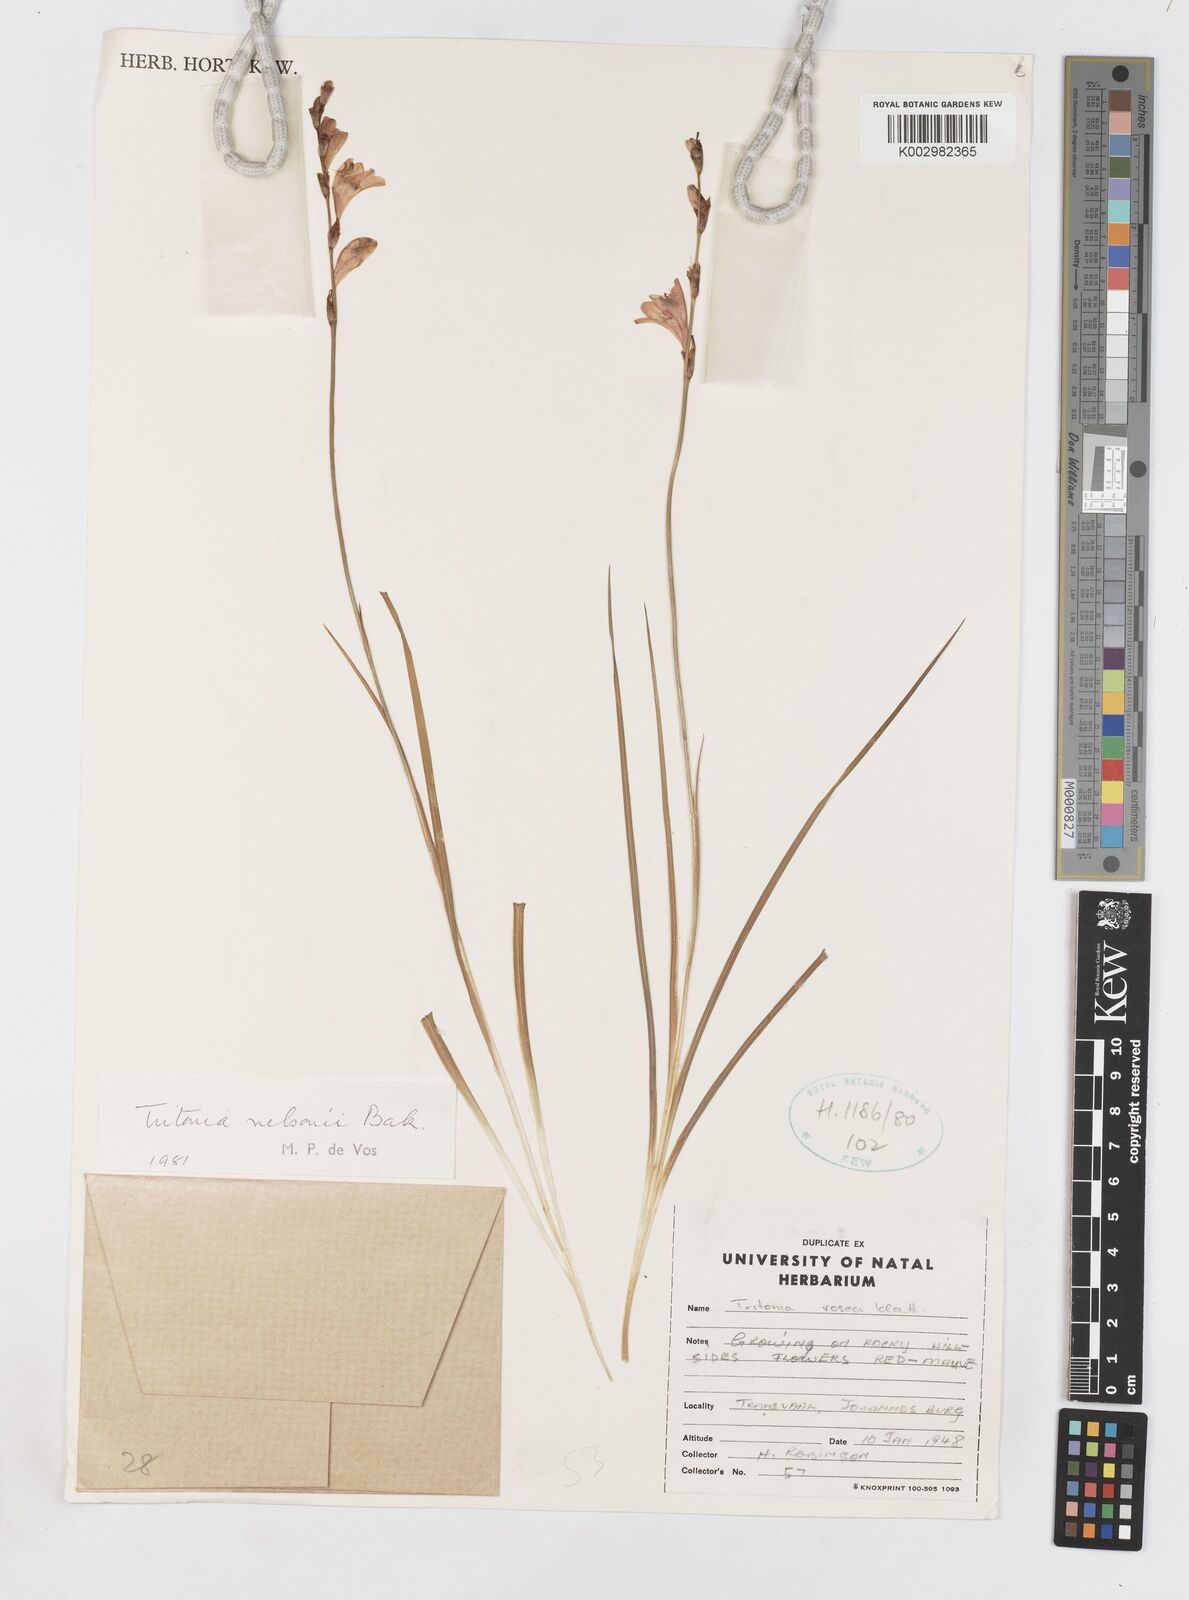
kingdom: Plantae
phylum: Tracheophyta
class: Liliopsida
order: Asparagales
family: Iridaceae
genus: Tritonia
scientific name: Tritonia nelsonii
